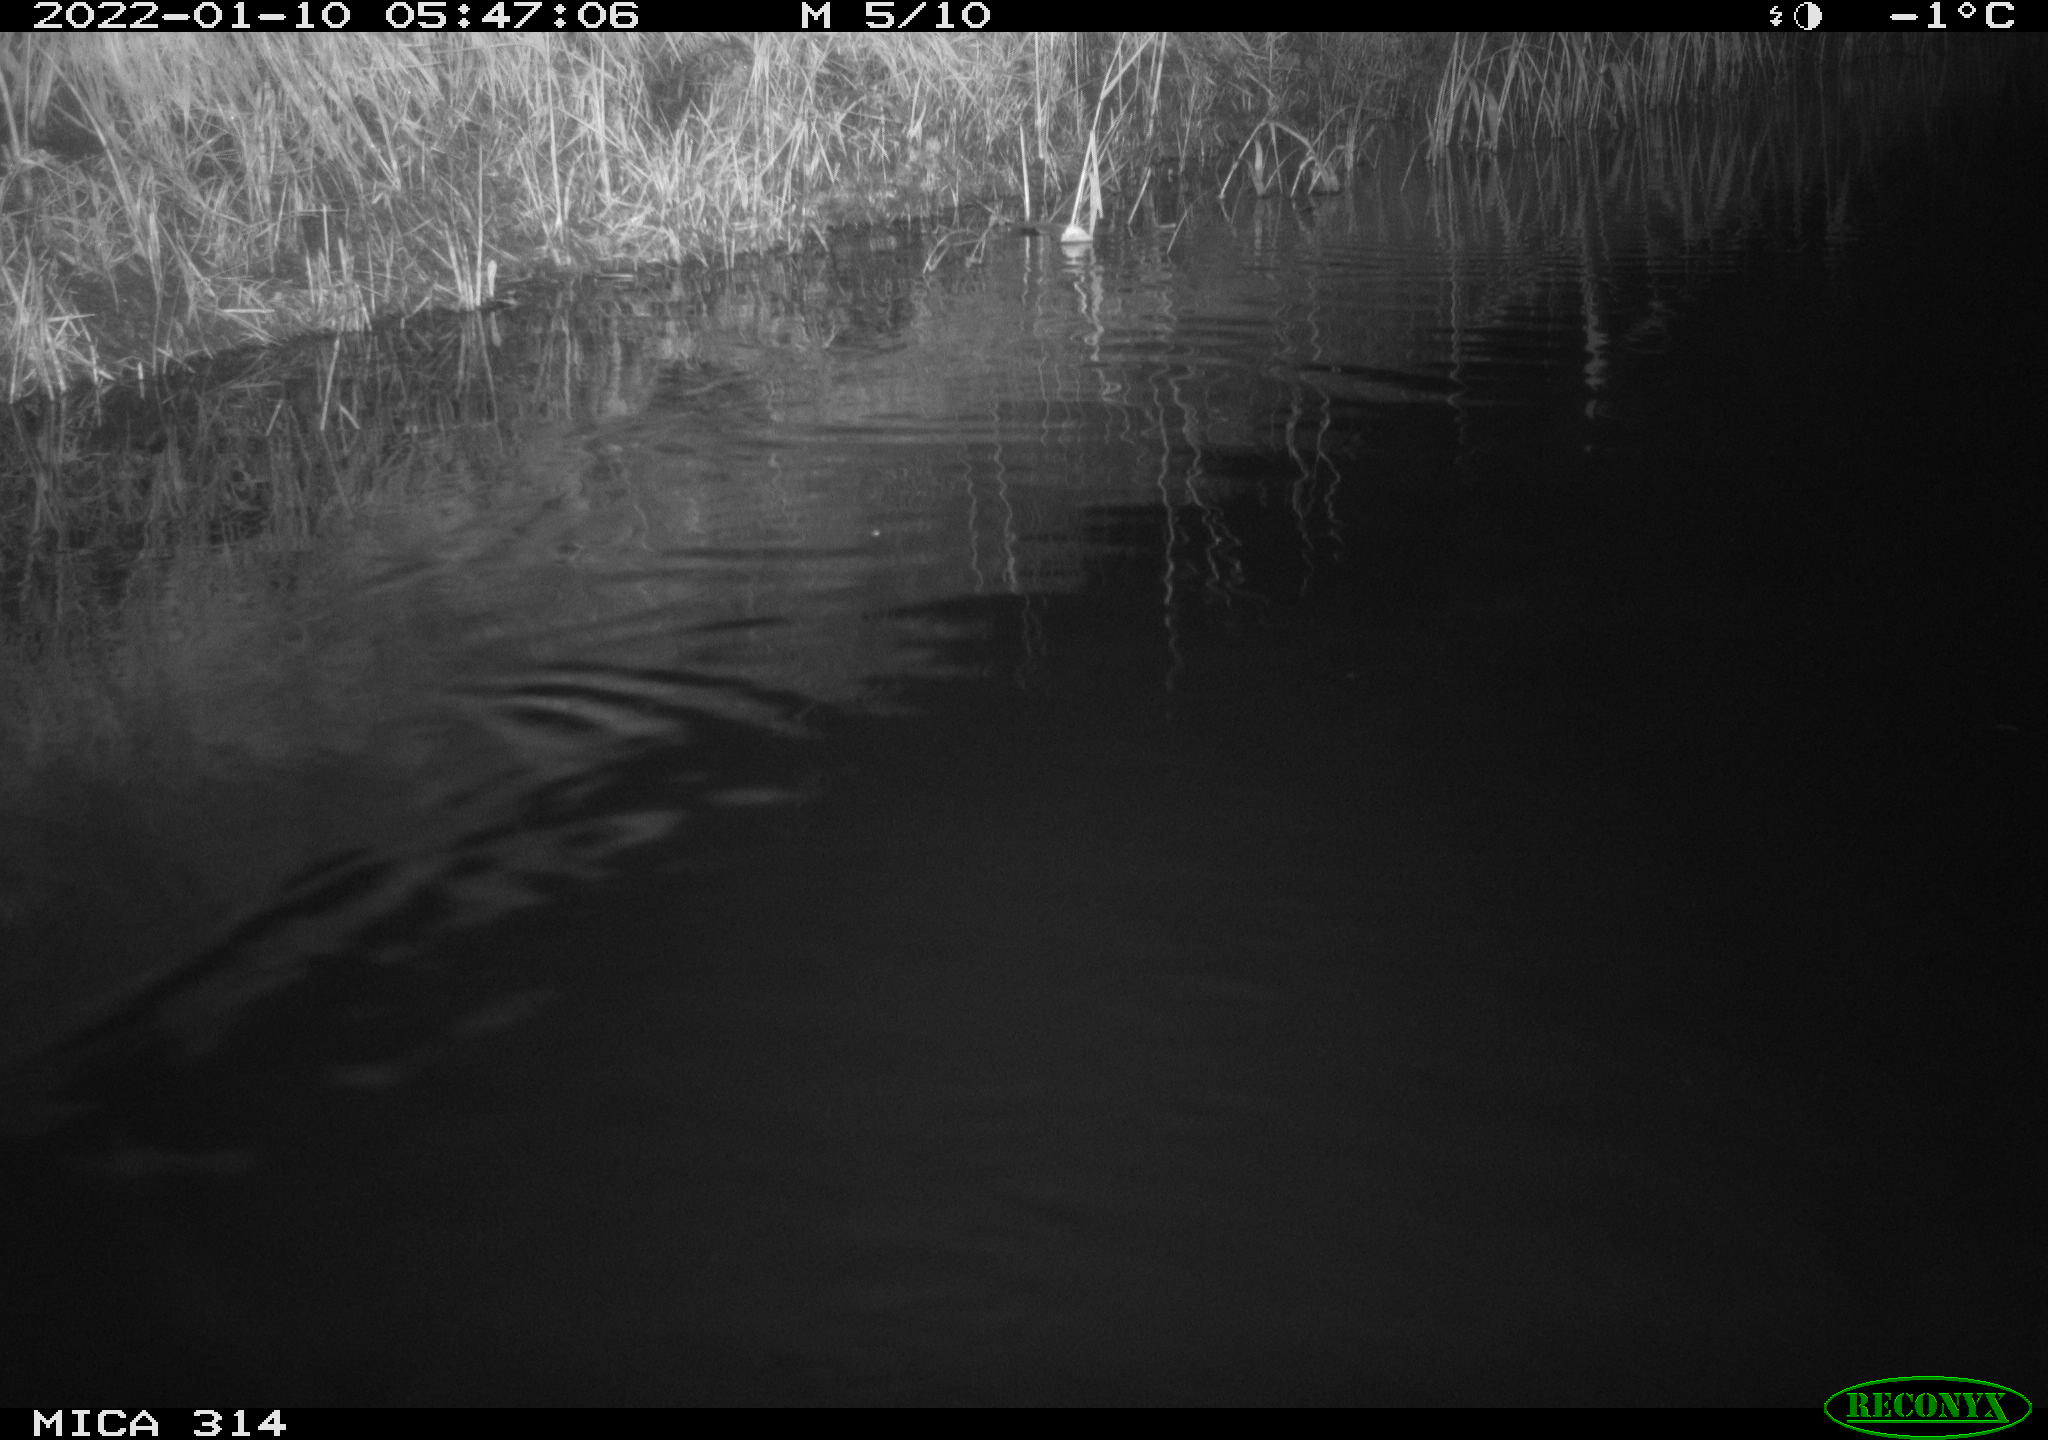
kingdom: Animalia
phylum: Chordata
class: Mammalia
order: Rodentia
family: Cricetidae
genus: Ondatra
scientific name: Ondatra zibethicus
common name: Muskrat
